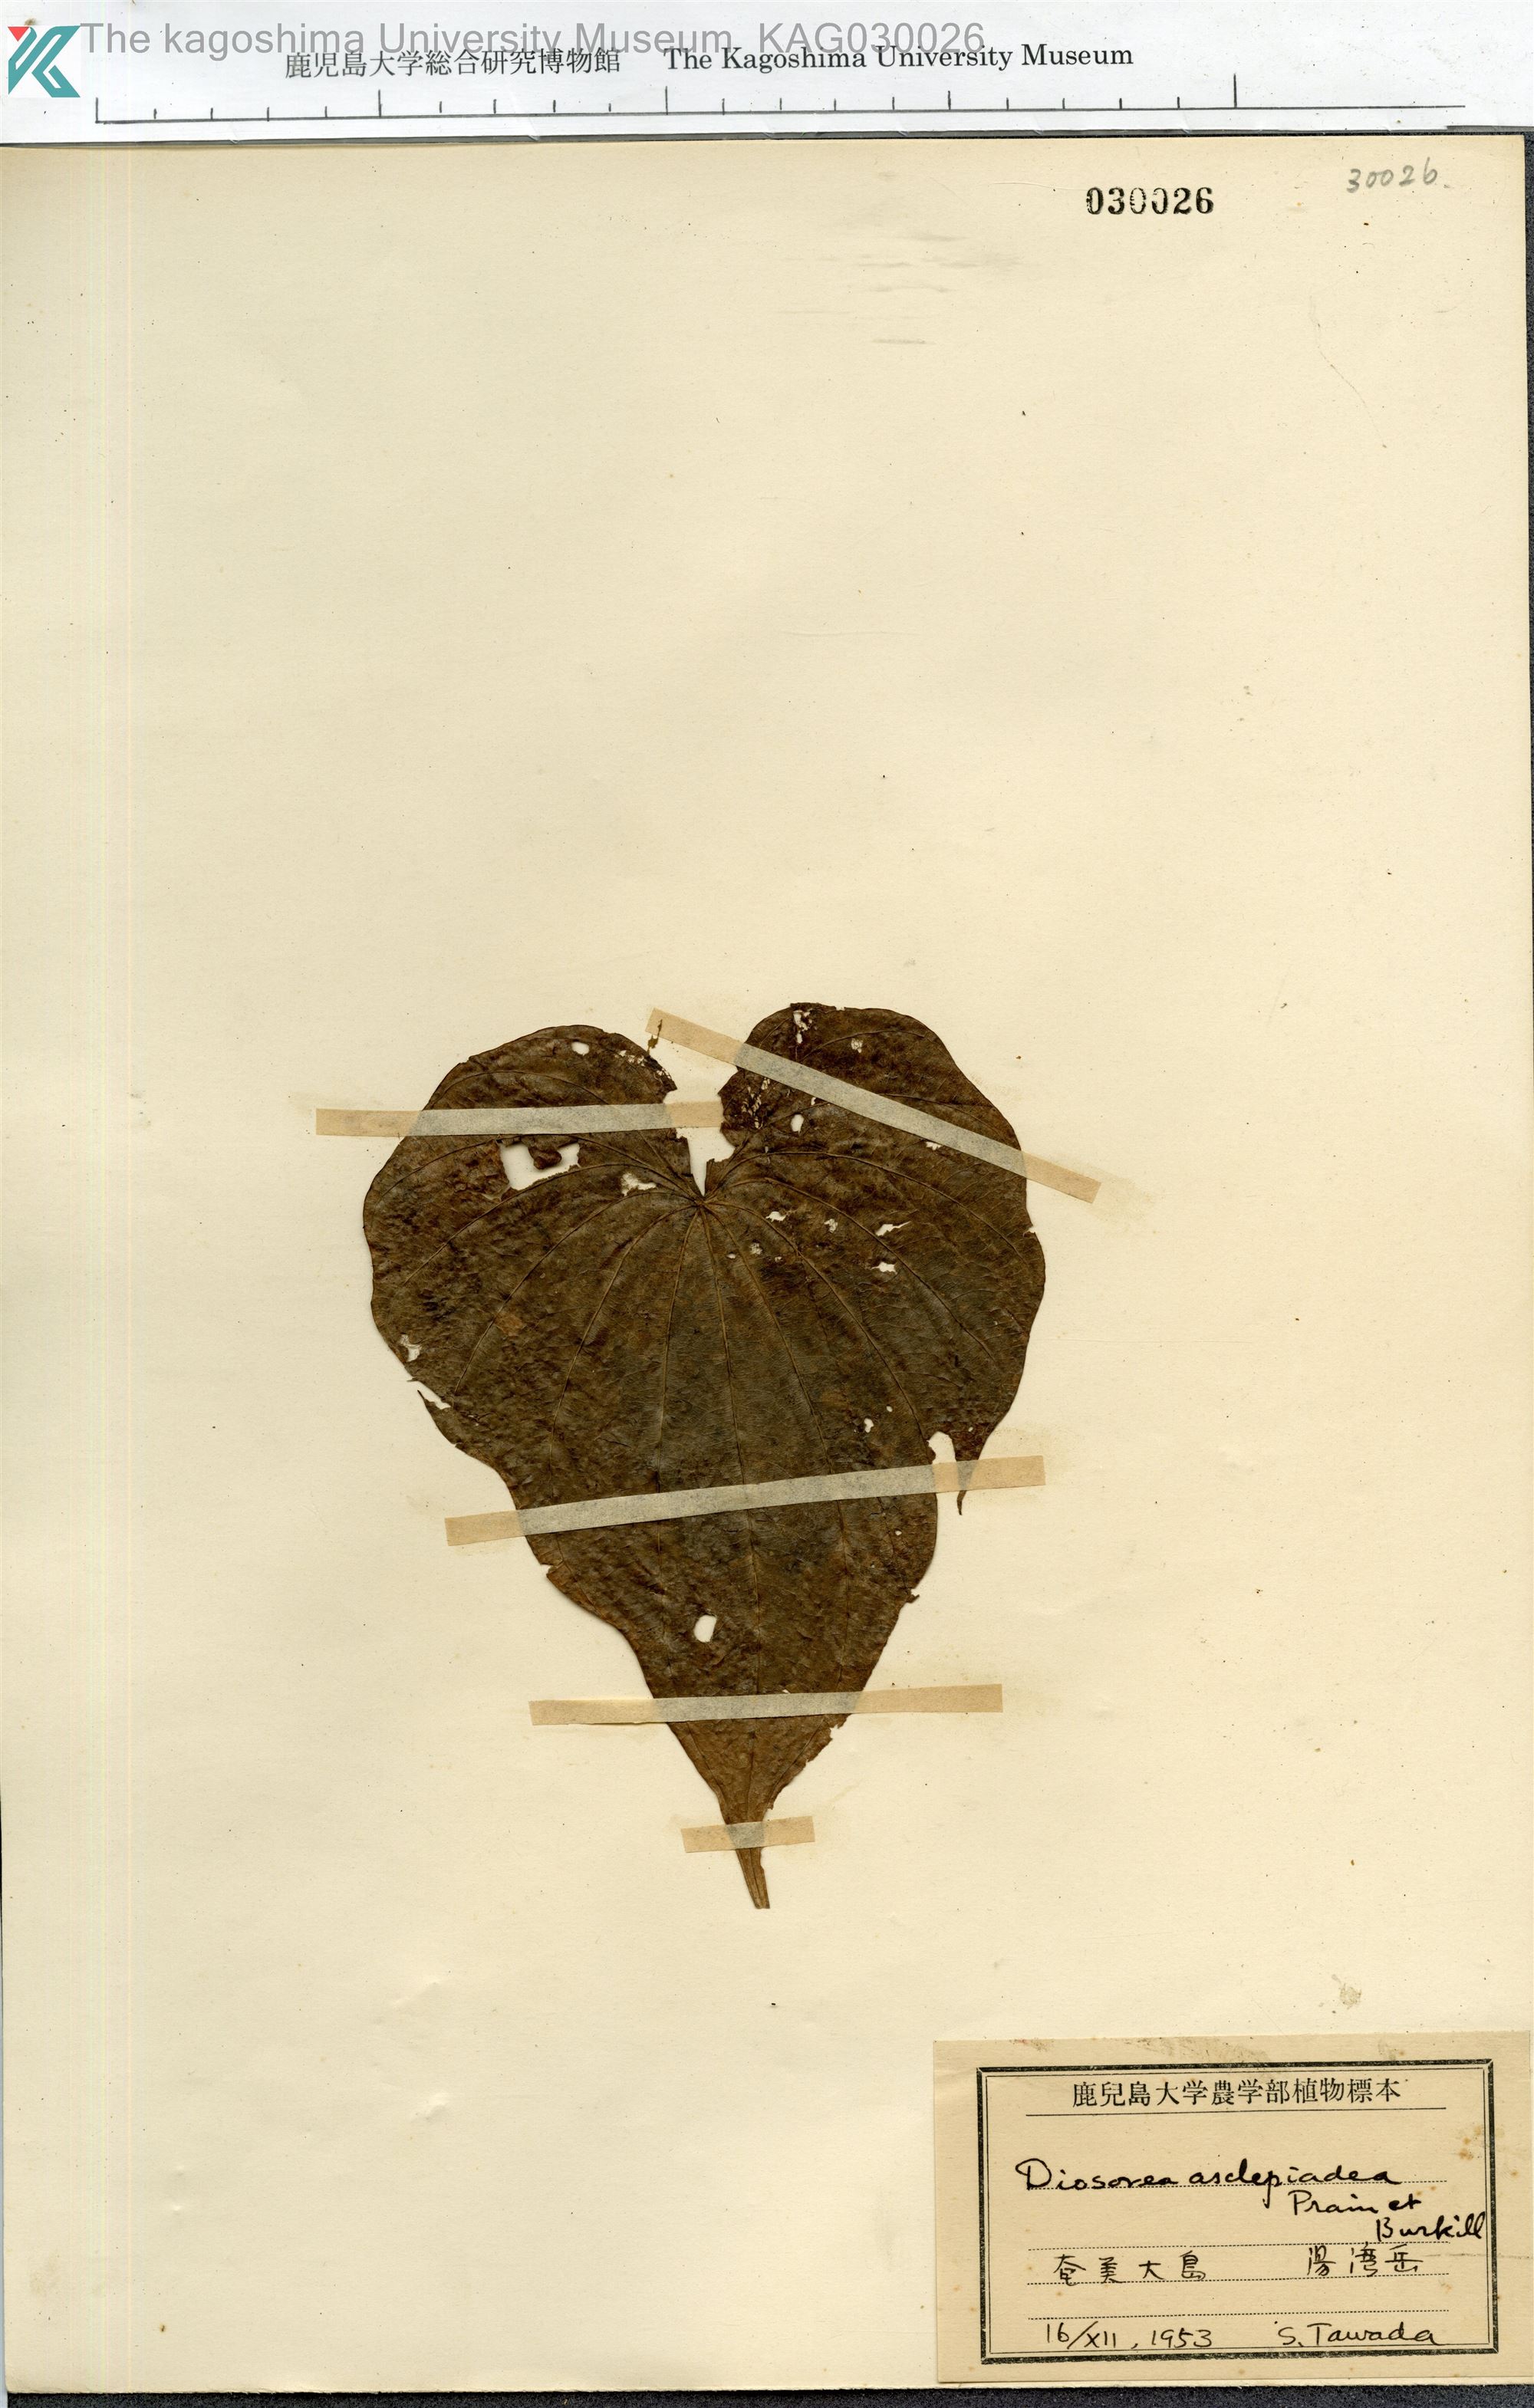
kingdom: Plantae
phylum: Tracheophyta
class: Liliopsida
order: Dioscoreales
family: Dioscoreaceae
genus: Dioscorea
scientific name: Dioscorea zentaroana
